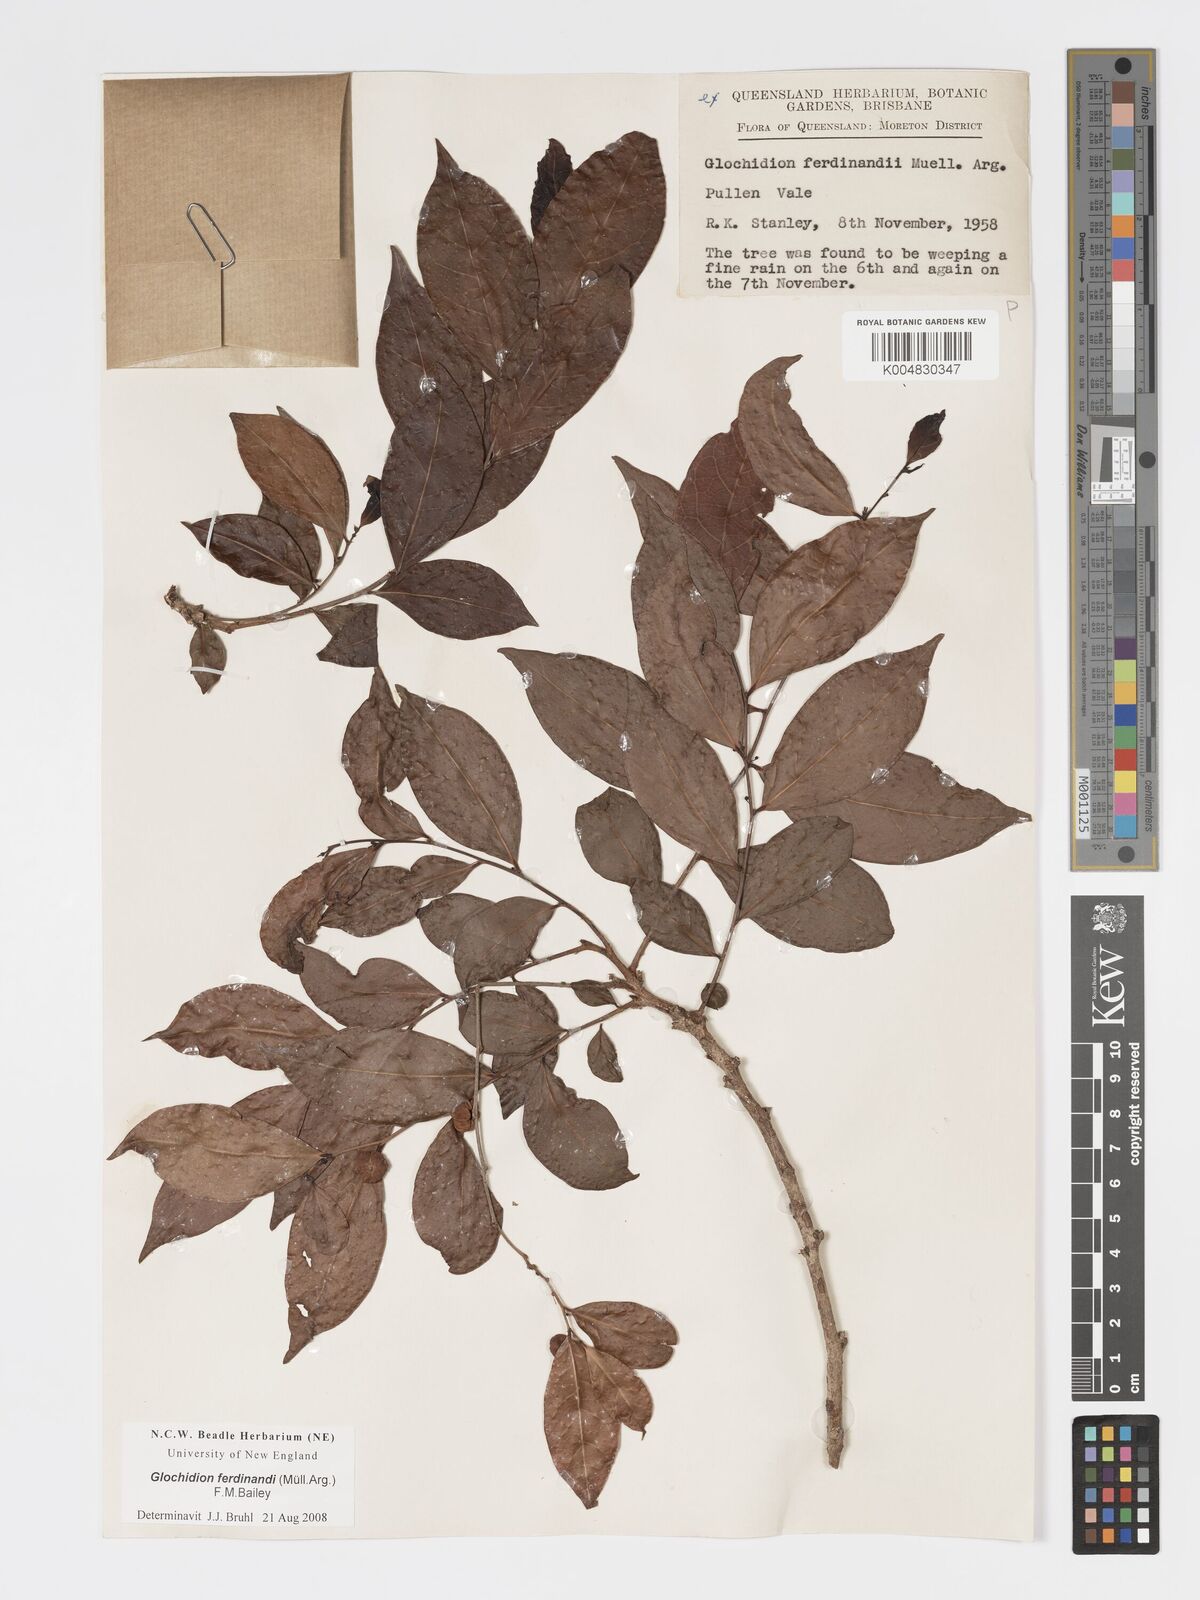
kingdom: Plantae
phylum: Tracheophyta
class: Magnoliopsida
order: Malpighiales
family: Phyllanthaceae
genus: Glochidion
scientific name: Glochidion ferdinandi
